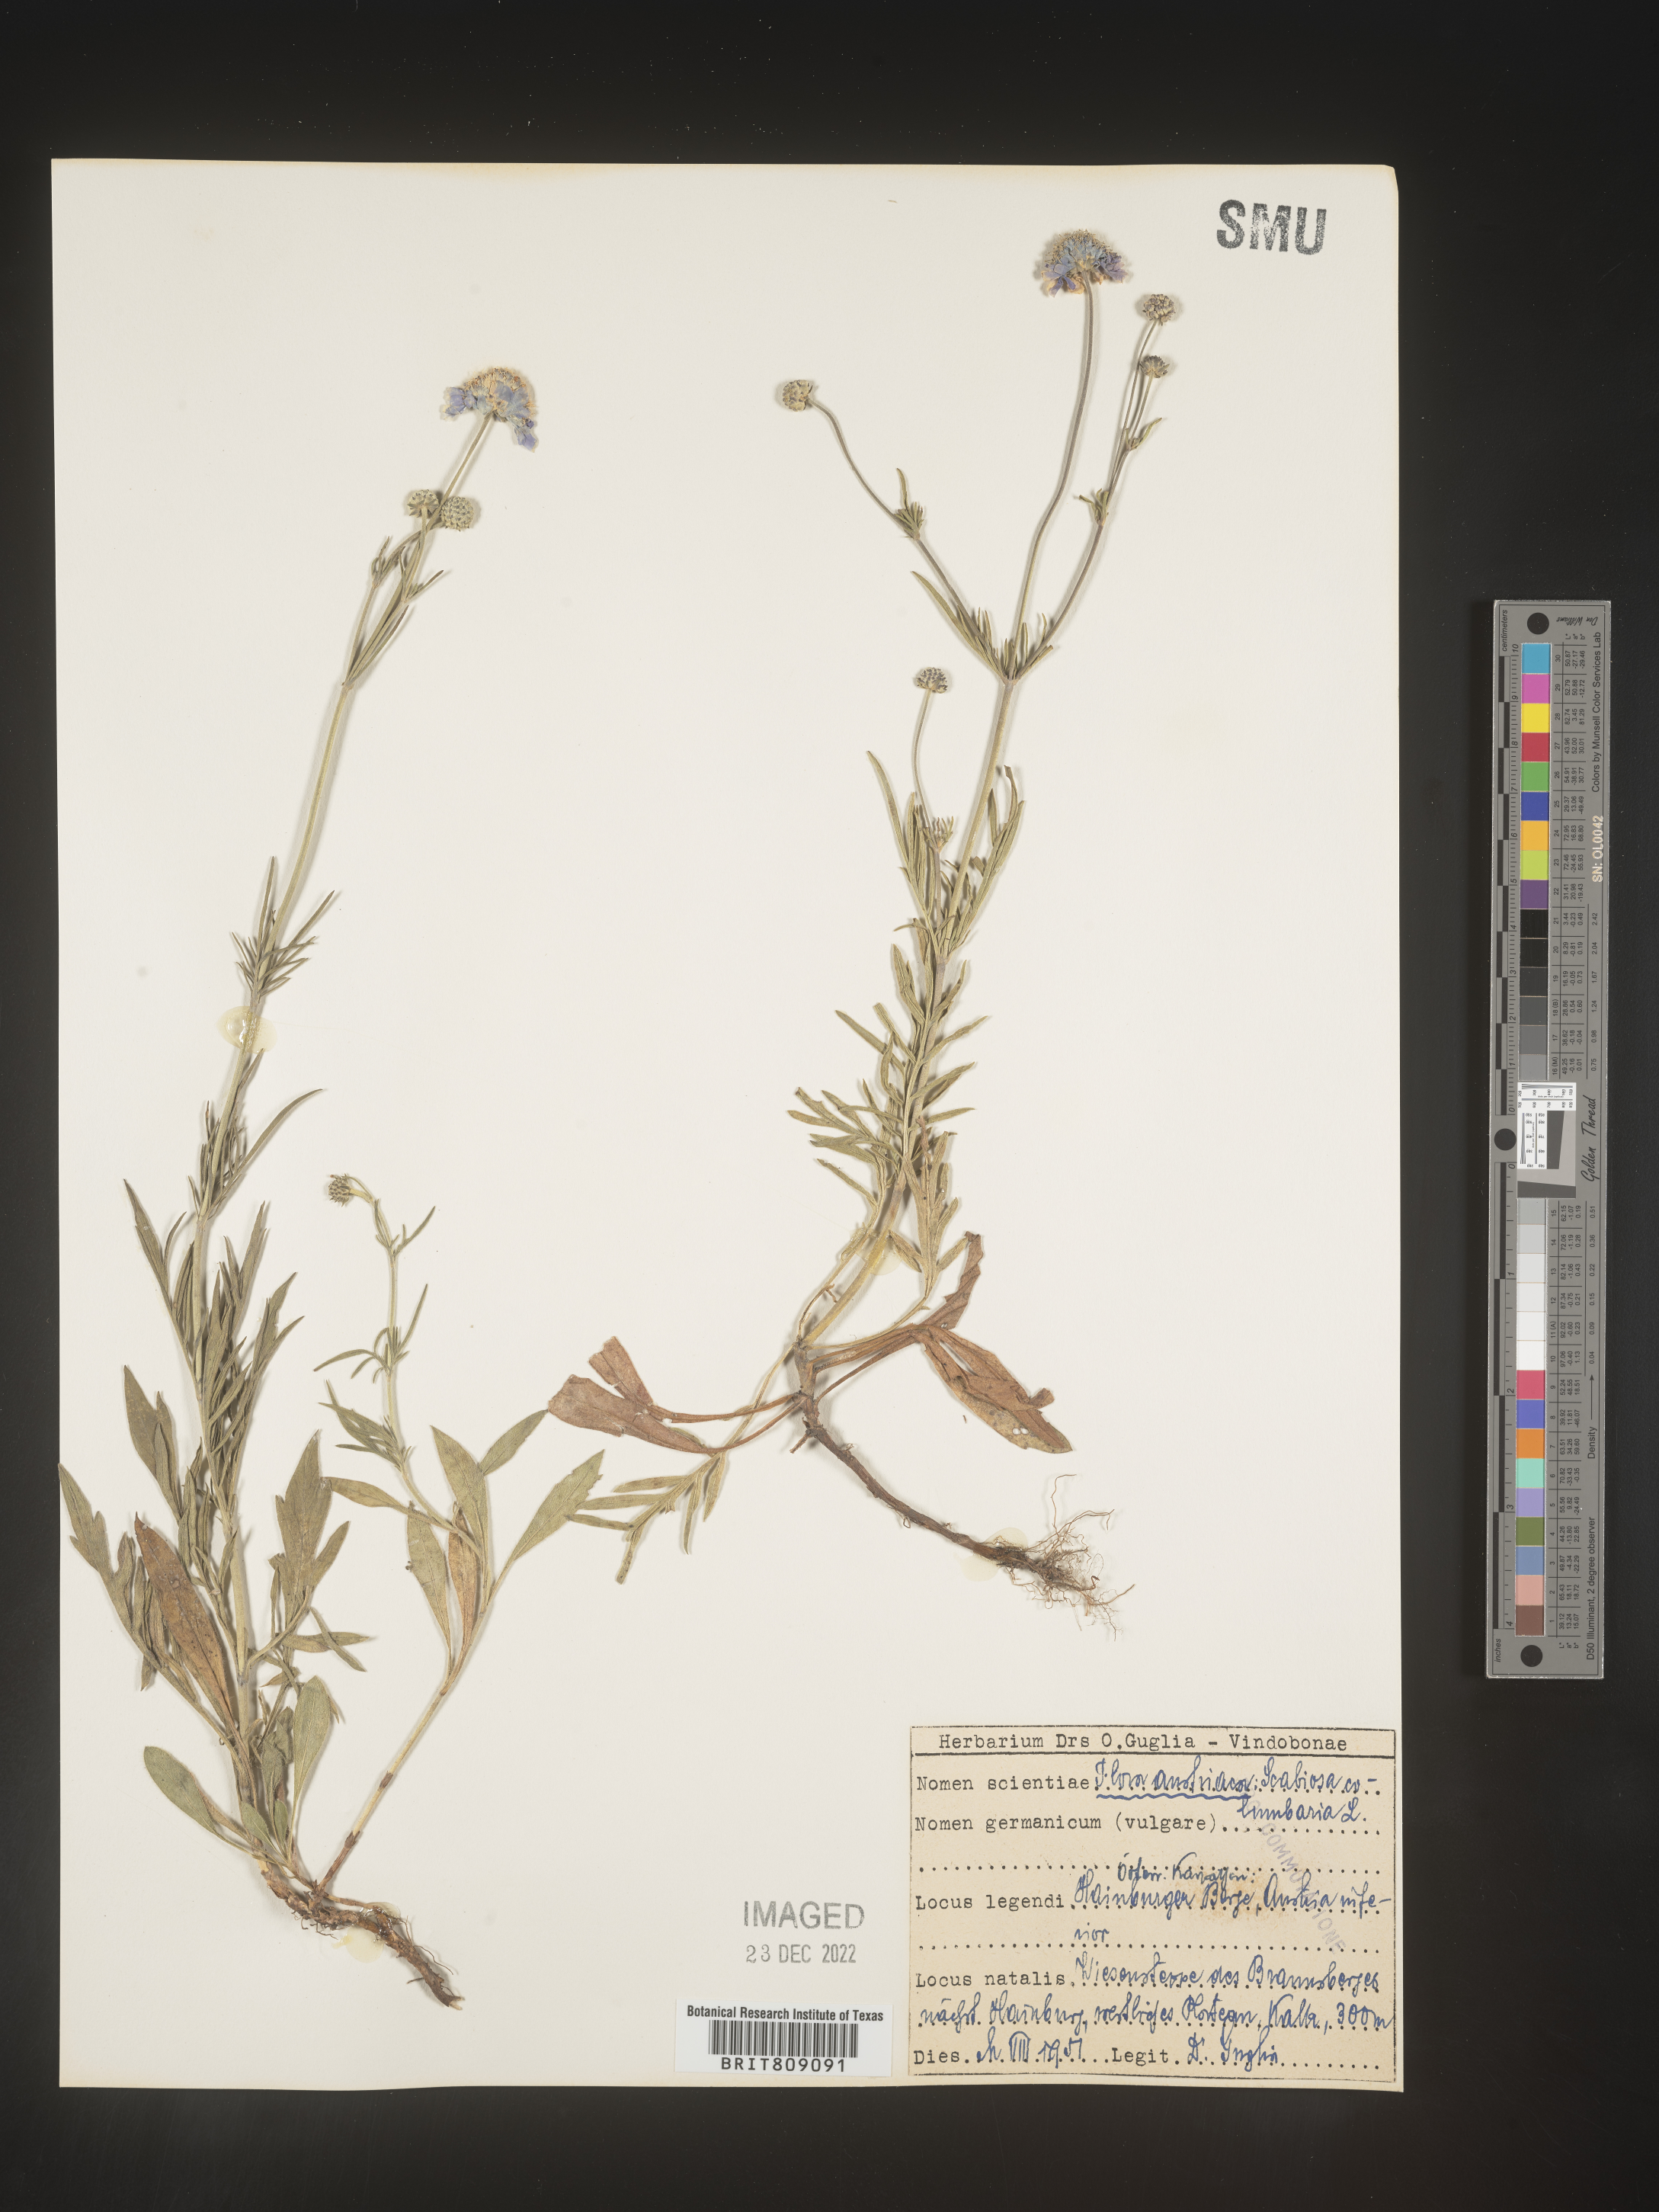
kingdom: Plantae
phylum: Tracheophyta
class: Magnoliopsida
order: Dipsacales
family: Caprifoliaceae
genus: Scabiosa
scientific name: Scabiosa
